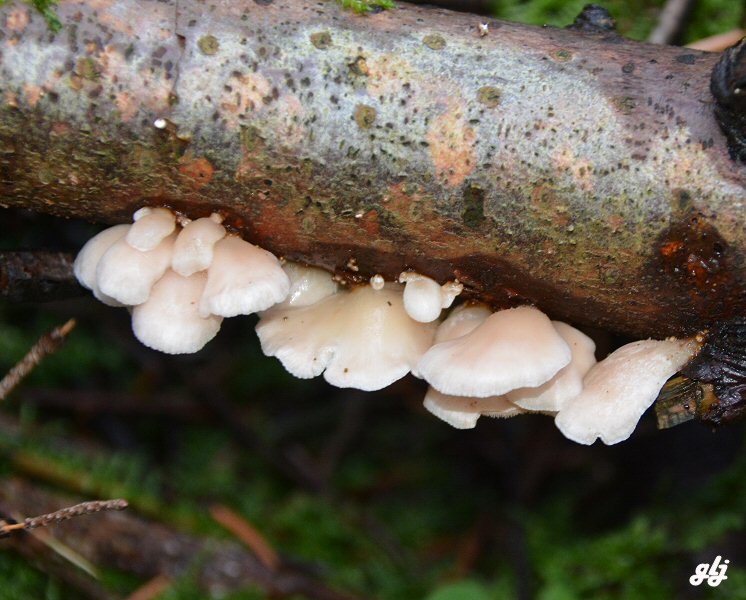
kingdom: Fungi
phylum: Basidiomycota
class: Agaricomycetes
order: Agaricales
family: Mycenaceae
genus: Panellus
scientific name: Panellus mitis
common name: mild epaulethat
